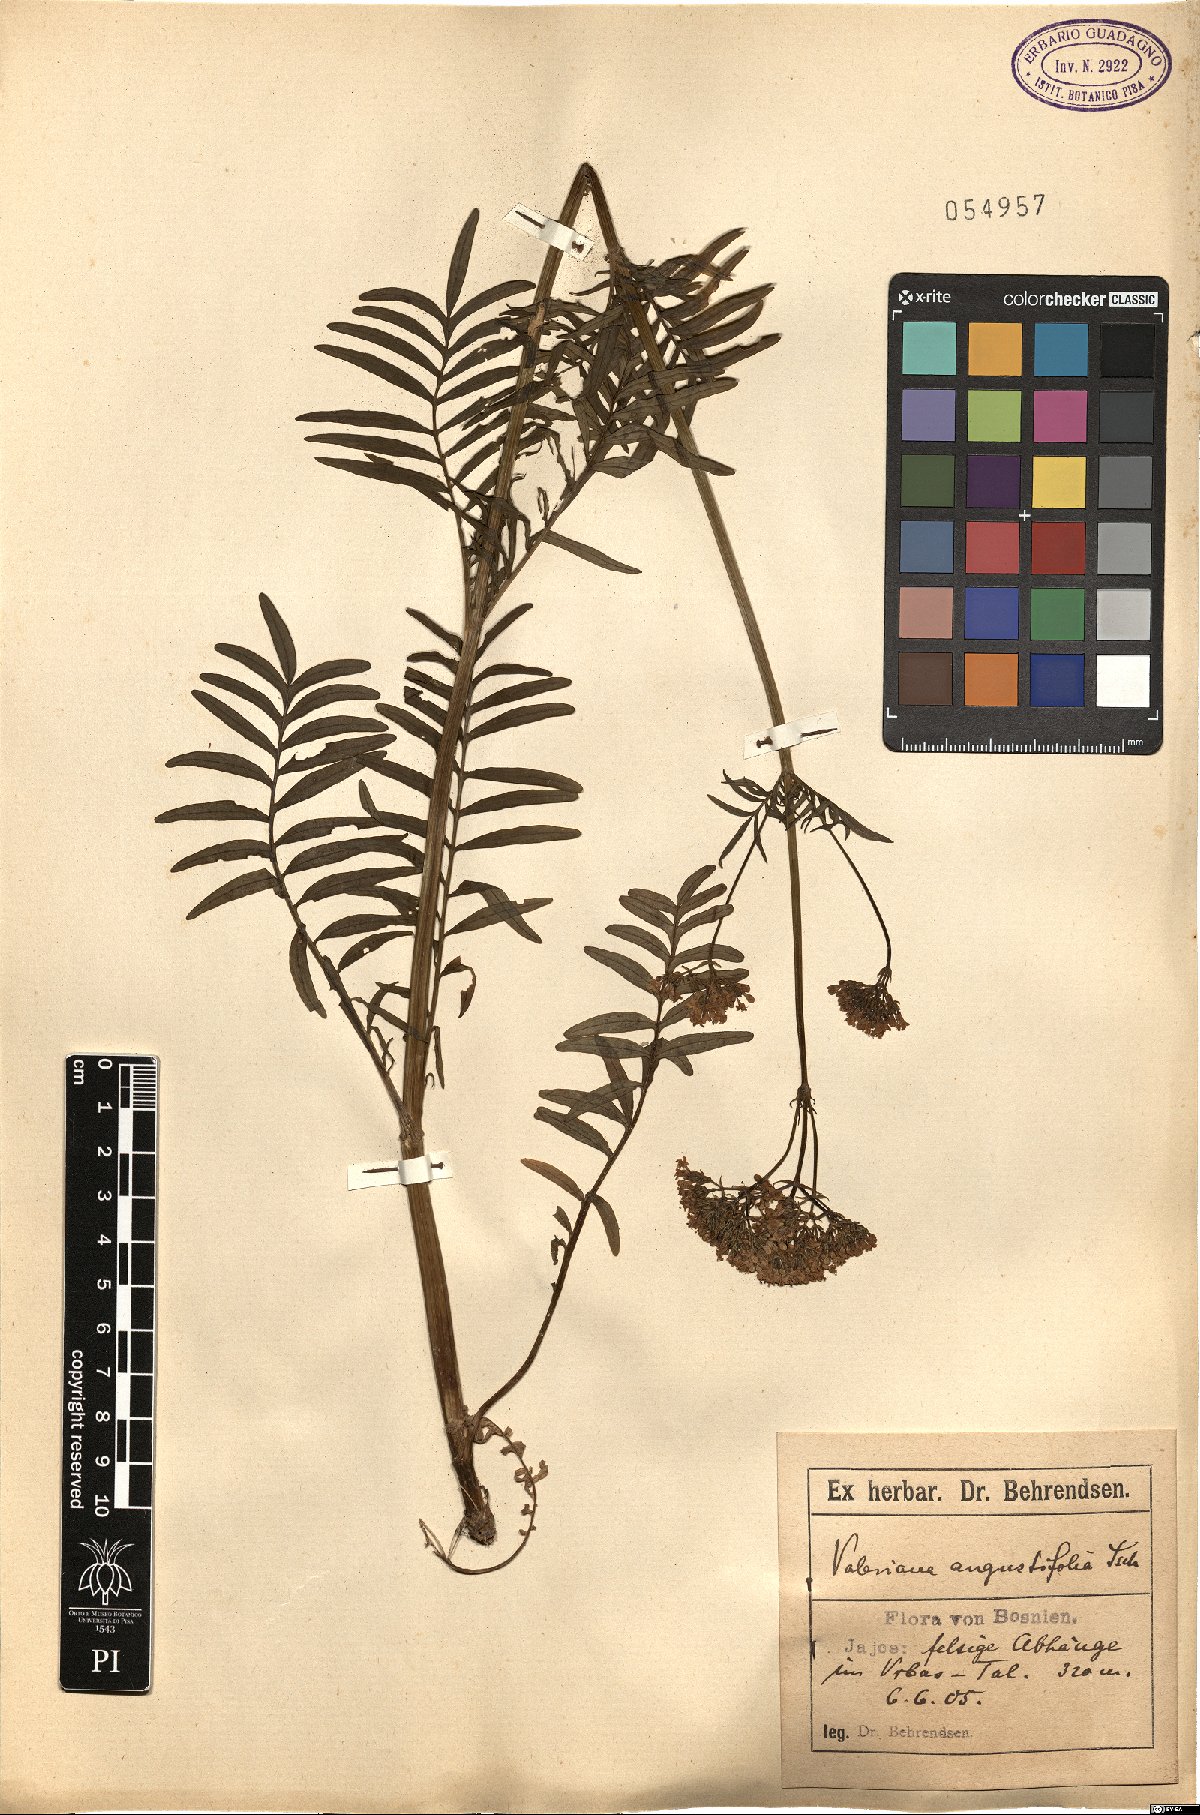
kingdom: Plantae
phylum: Tracheophyta
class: Magnoliopsida
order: Dipsacales
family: Caprifoliaceae
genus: Centranthus
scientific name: Centranthus angustifolius
